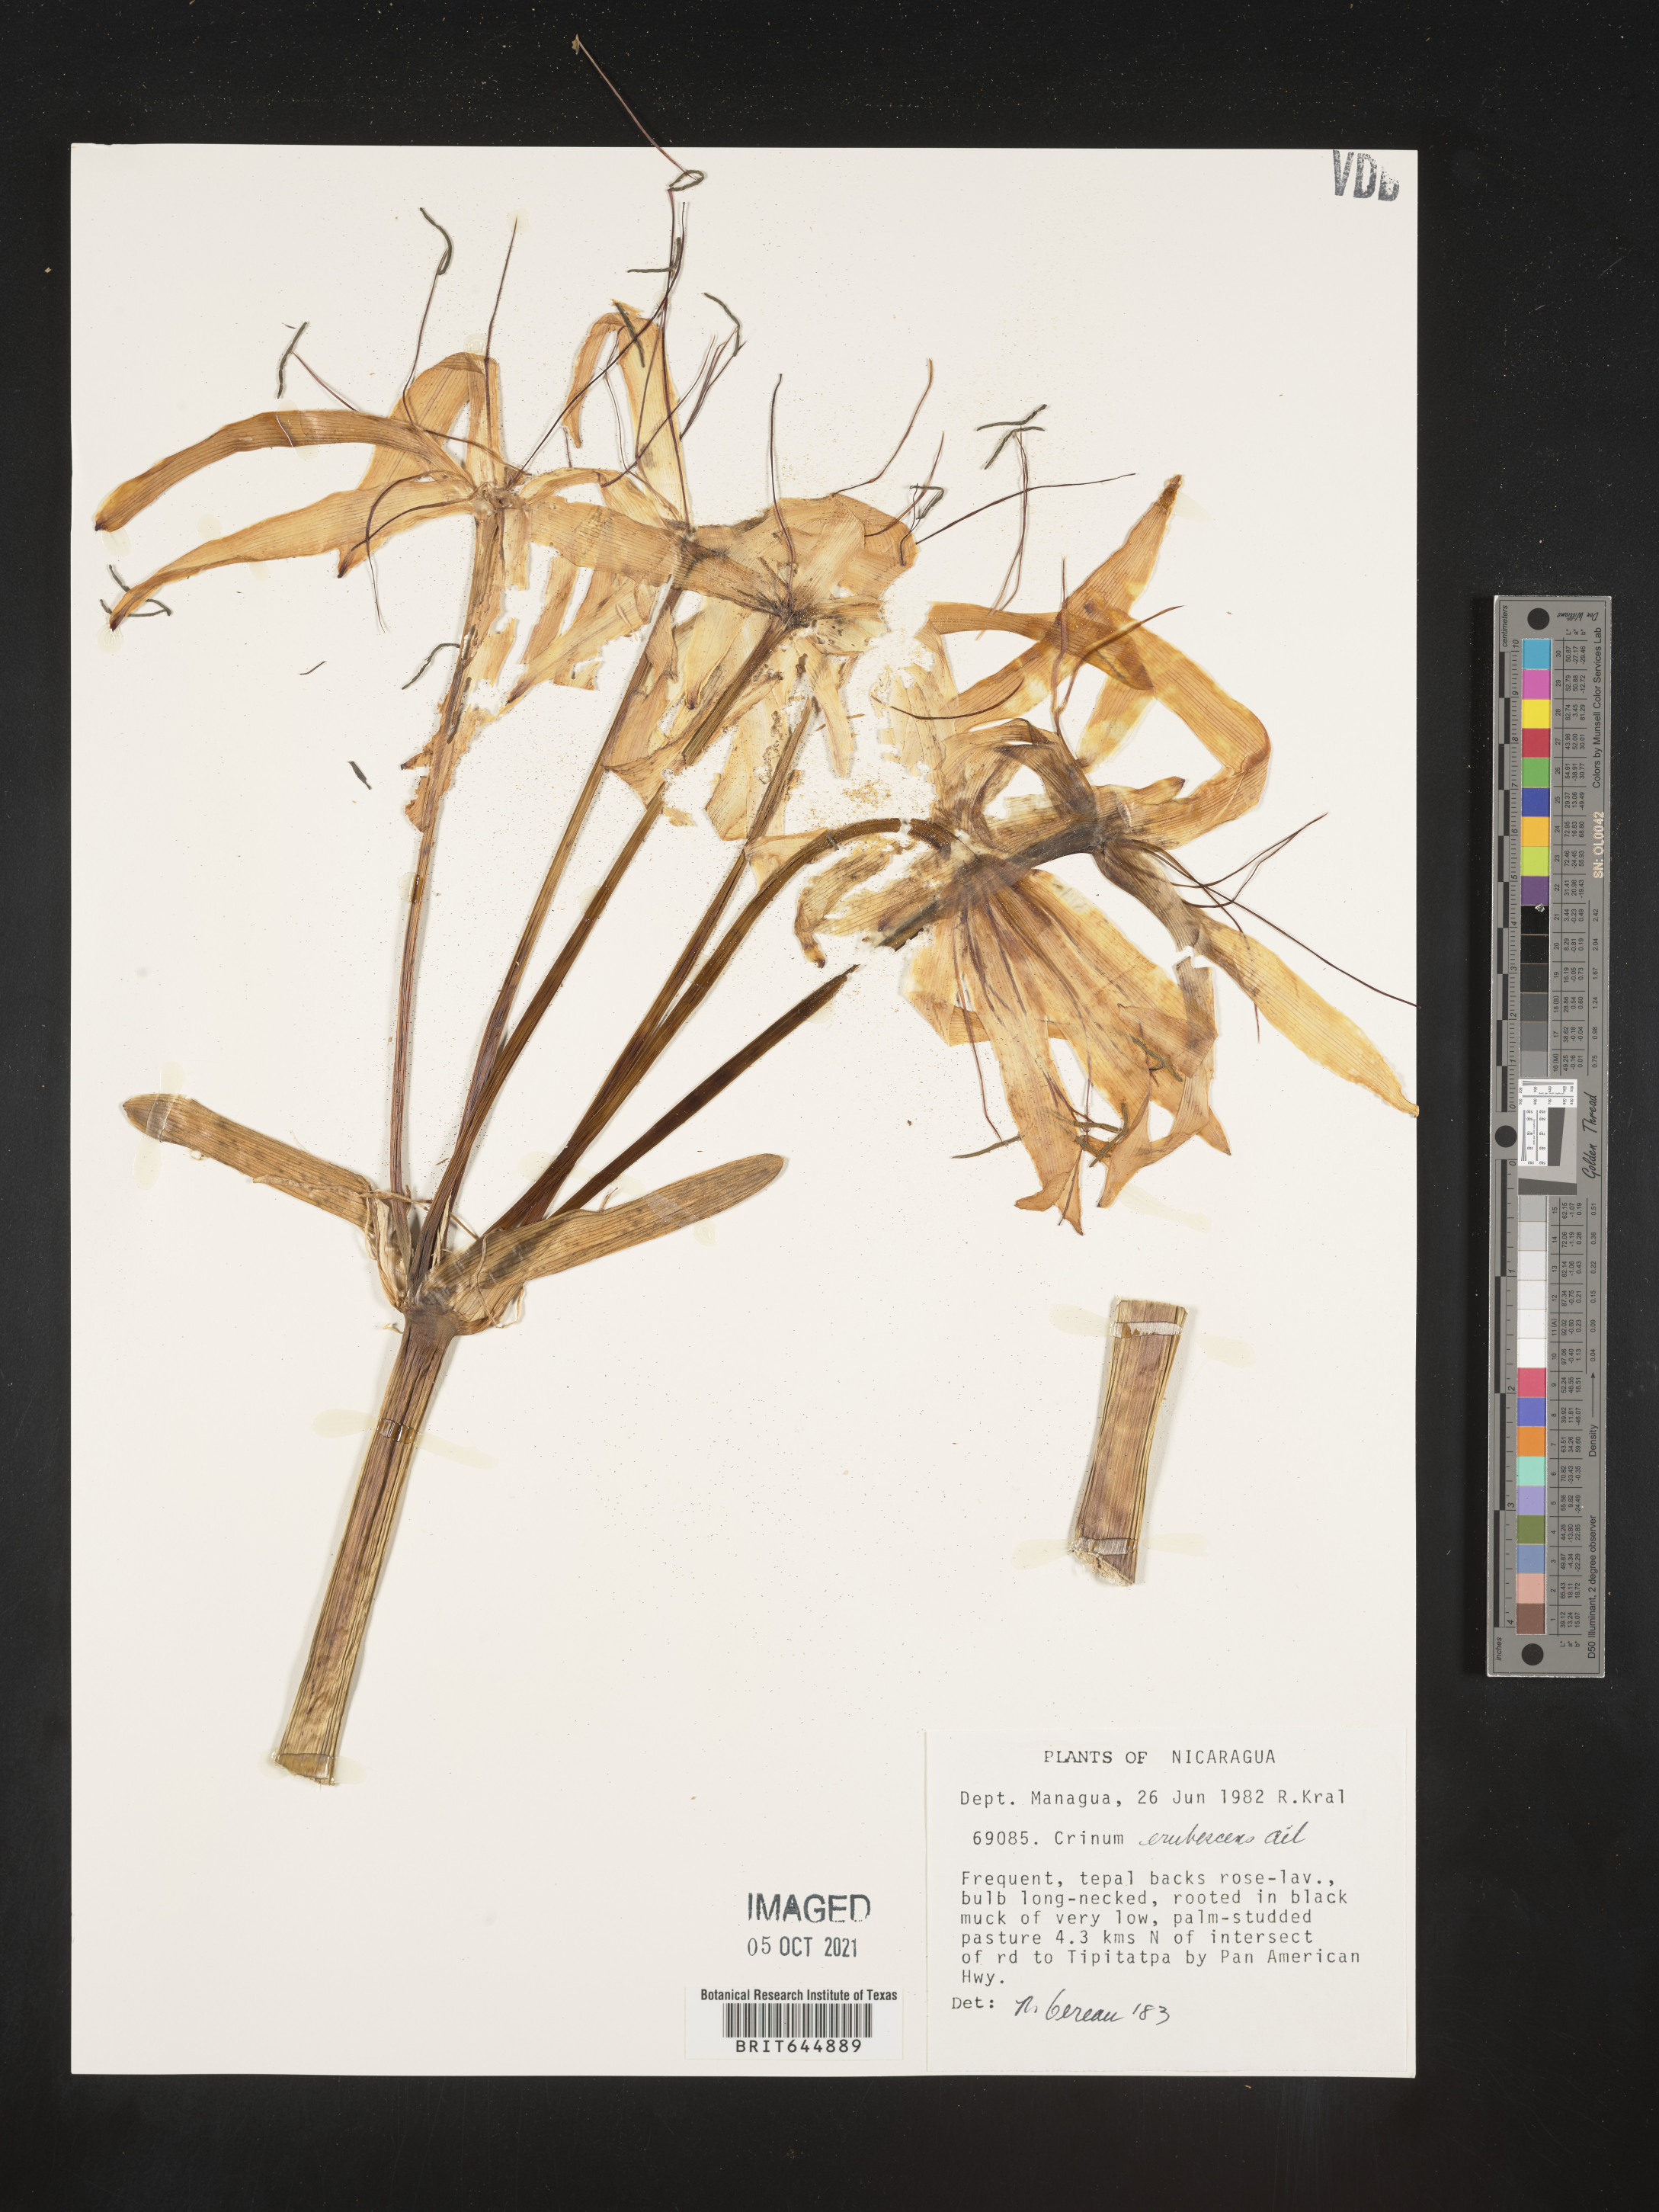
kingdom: Plantae
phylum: Tracheophyta
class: Liliopsida
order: Asparagales
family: Amaryllidaceae
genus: Crinum
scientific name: Crinum kunthianum
